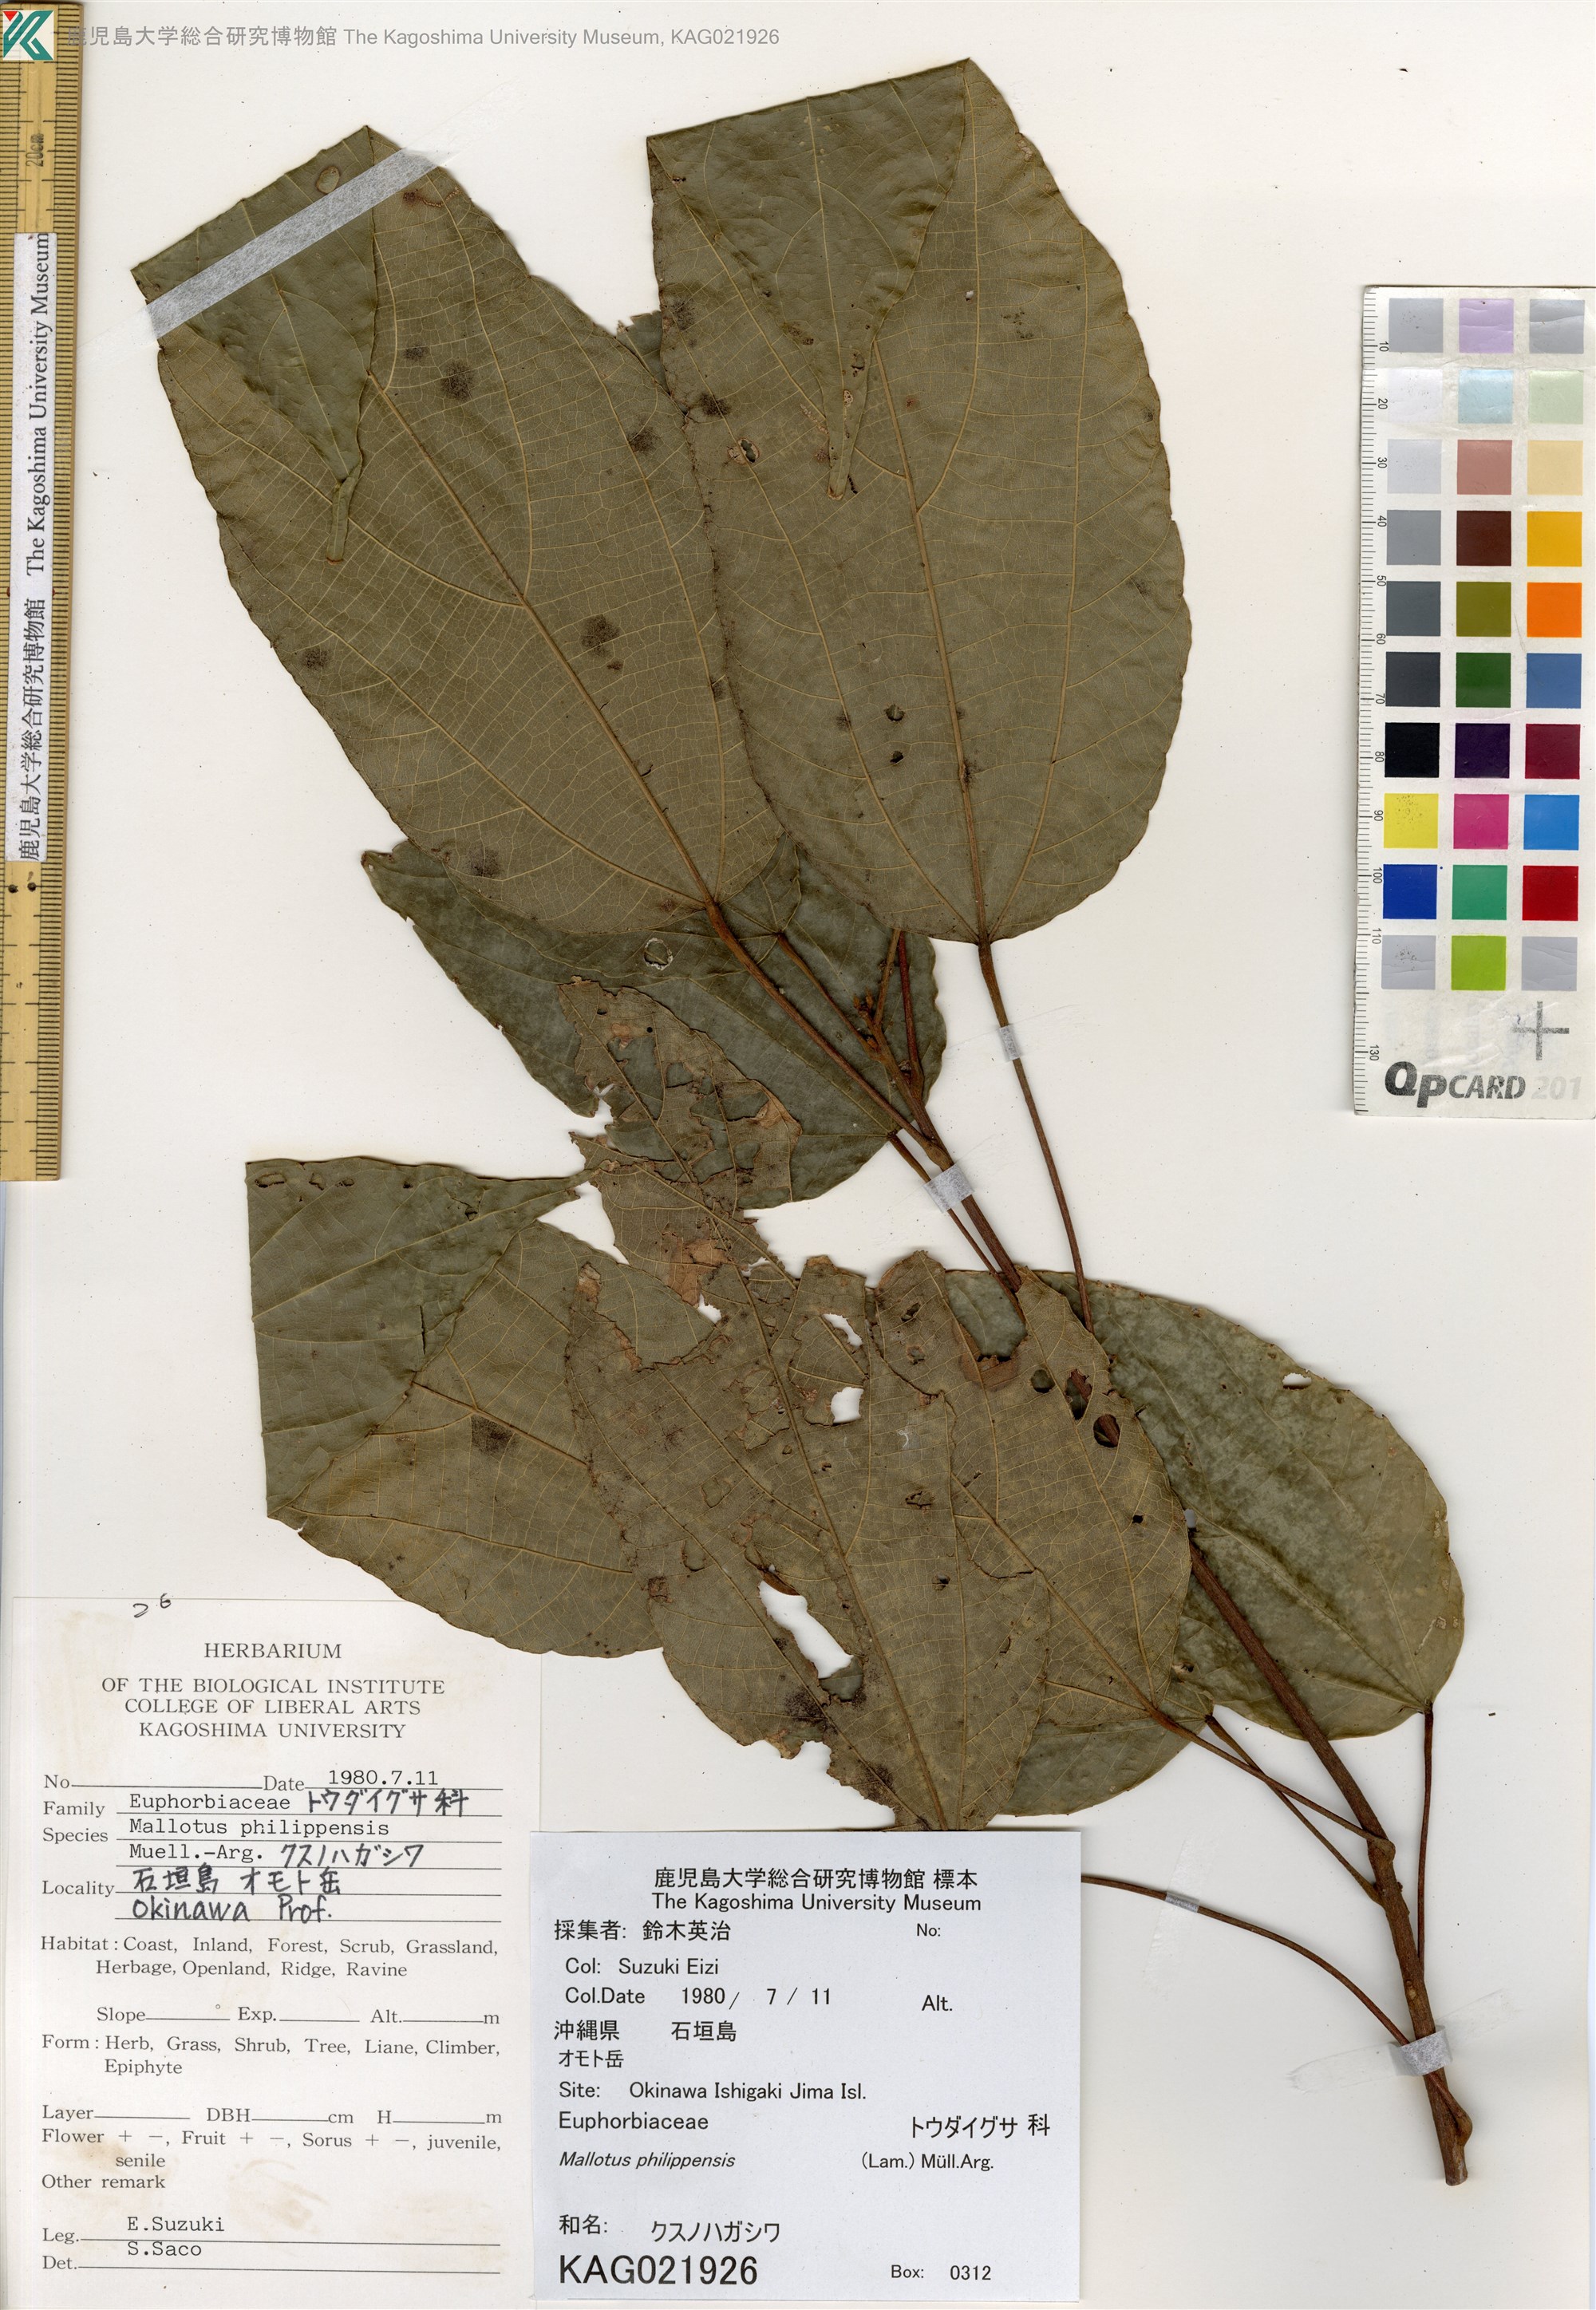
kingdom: Plantae
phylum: Tracheophyta
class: Magnoliopsida
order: Malpighiales
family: Euphorbiaceae
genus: Mallotus
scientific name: Mallotus philippensis
